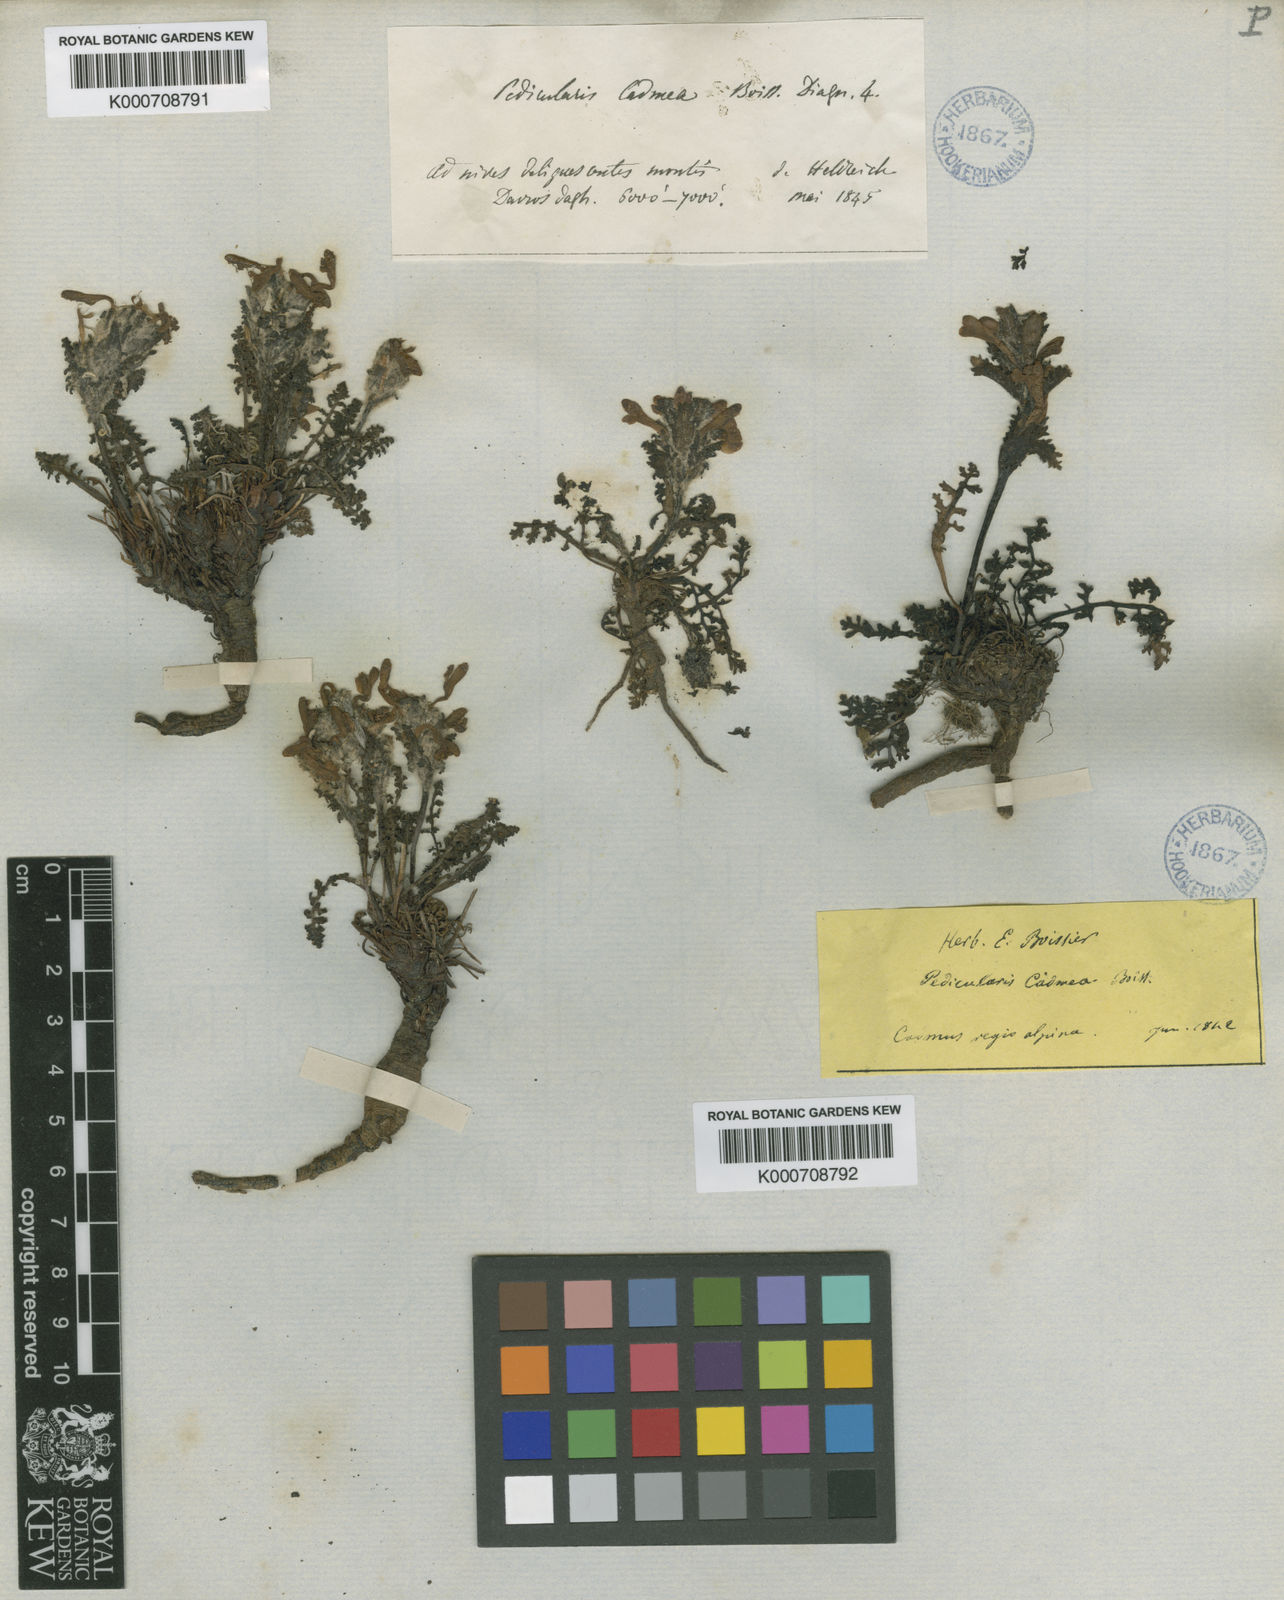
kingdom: Plantae
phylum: Tracheophyta
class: Magnoliopsida
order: Lamiales
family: Orobanchaceae
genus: Pedicularis
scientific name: Pedicularis cadmea
